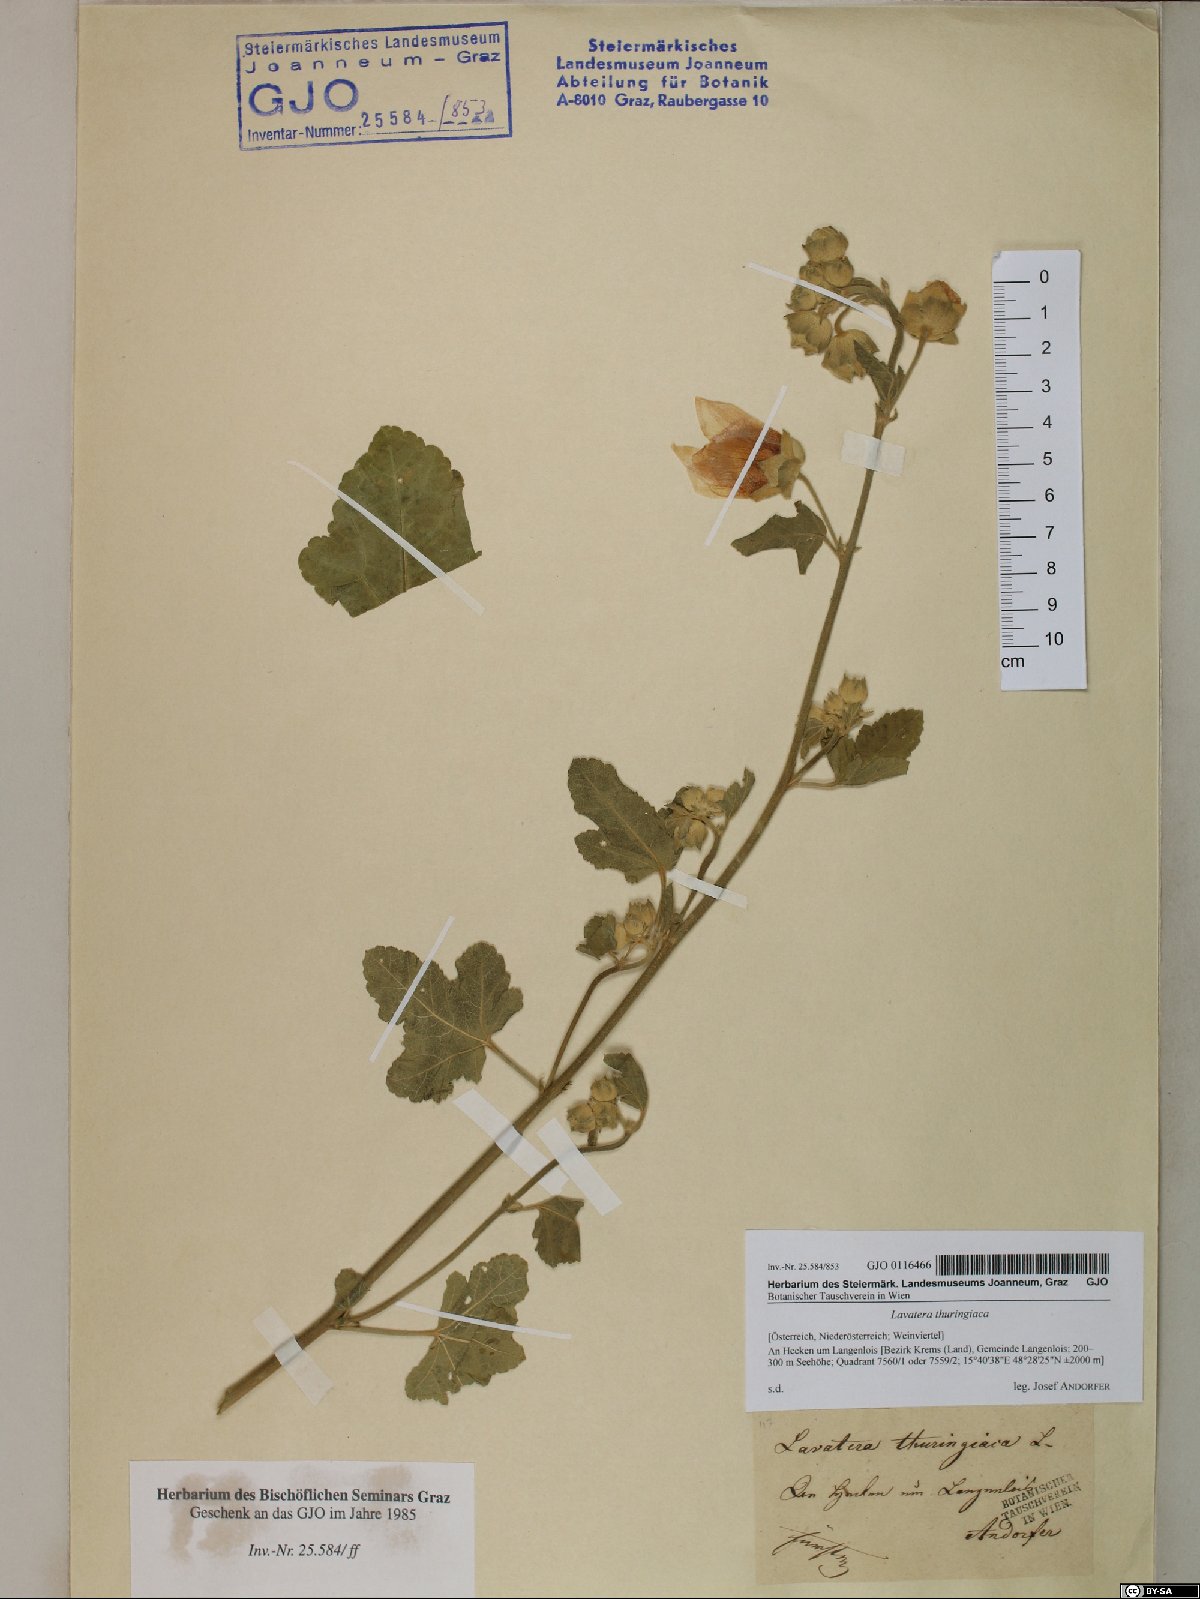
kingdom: Plantae
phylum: Tracheophyta
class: Magnoliopsida
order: Malvales
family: Malvaceae
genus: Malva
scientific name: Malva thuringiaca
